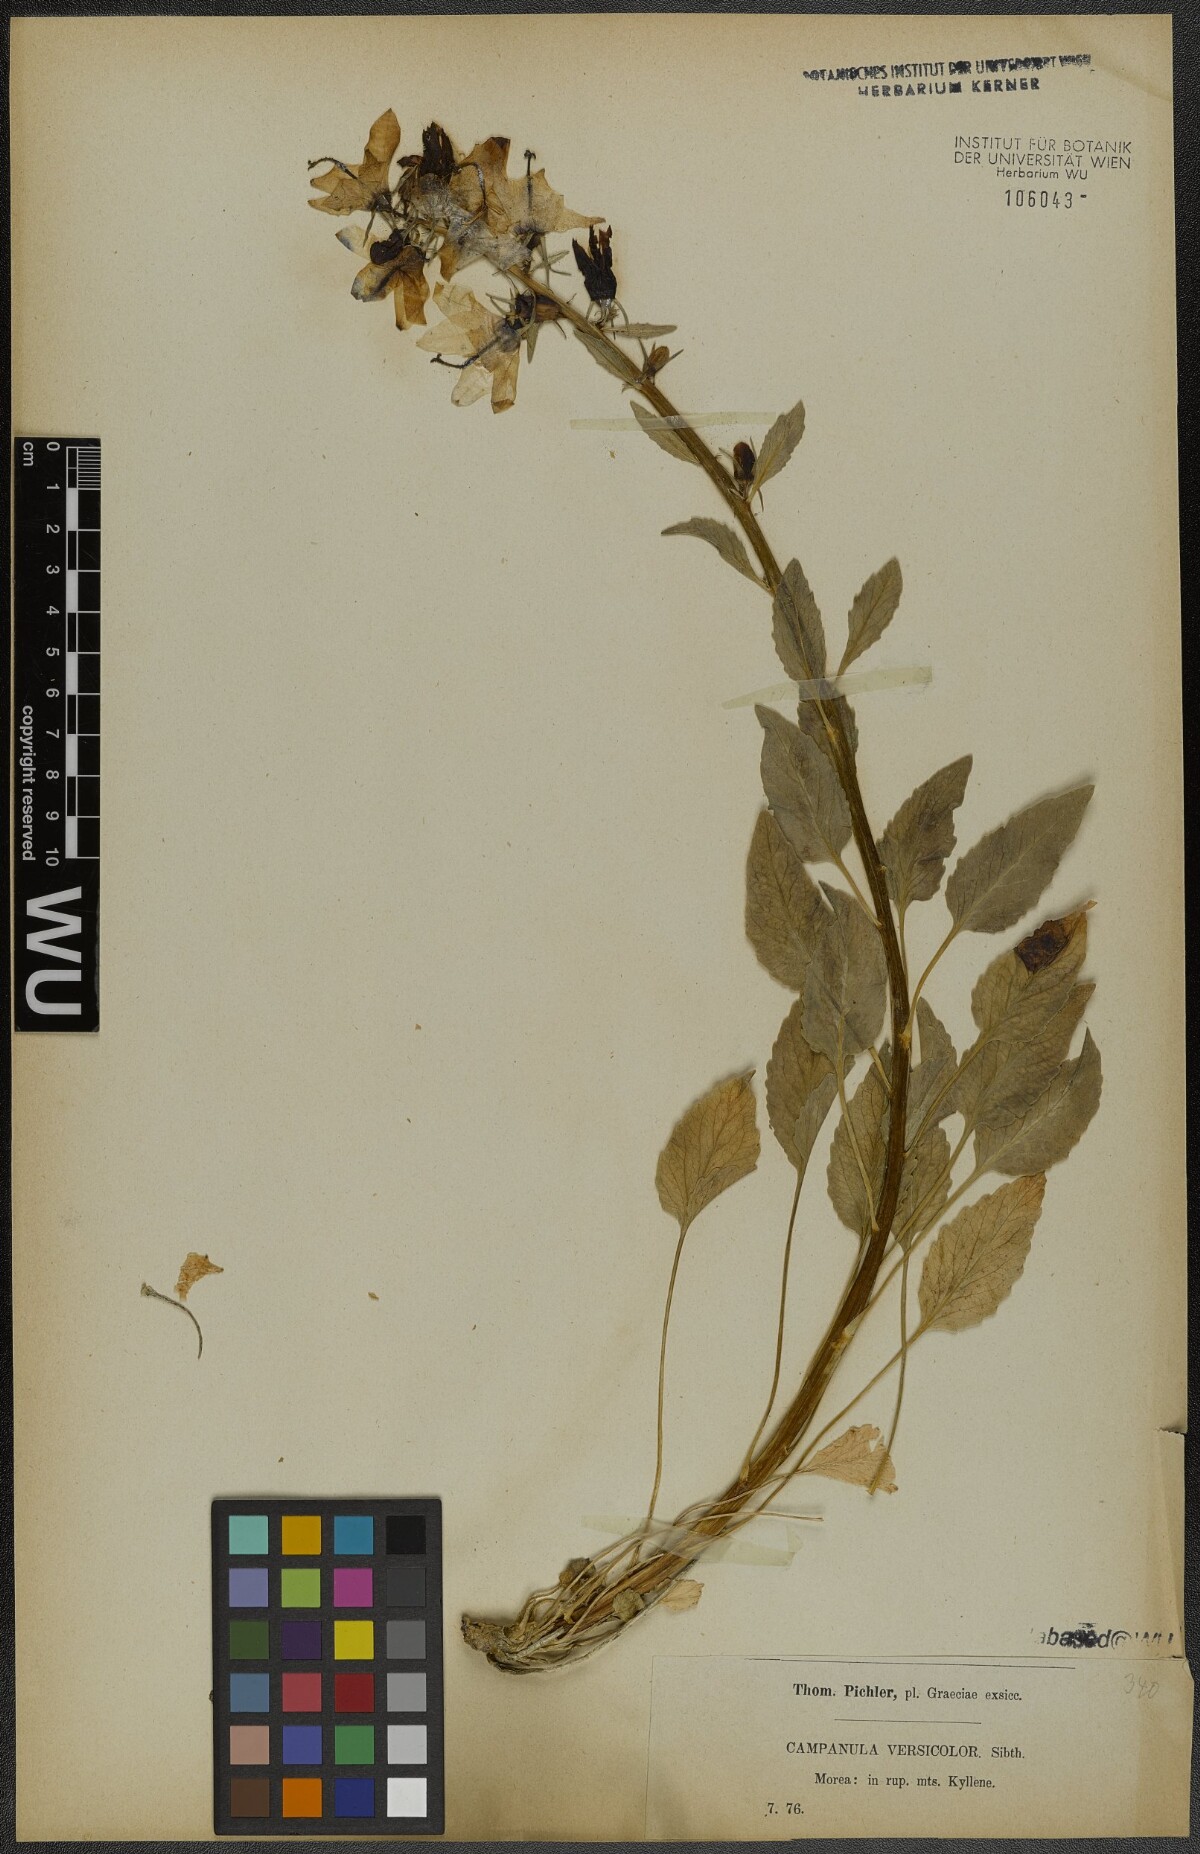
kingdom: Plantae
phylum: Tracheophyta
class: Magnoliopsida
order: Asterales
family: Campanulaceae
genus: Campanula
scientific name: Campanula versicolor
